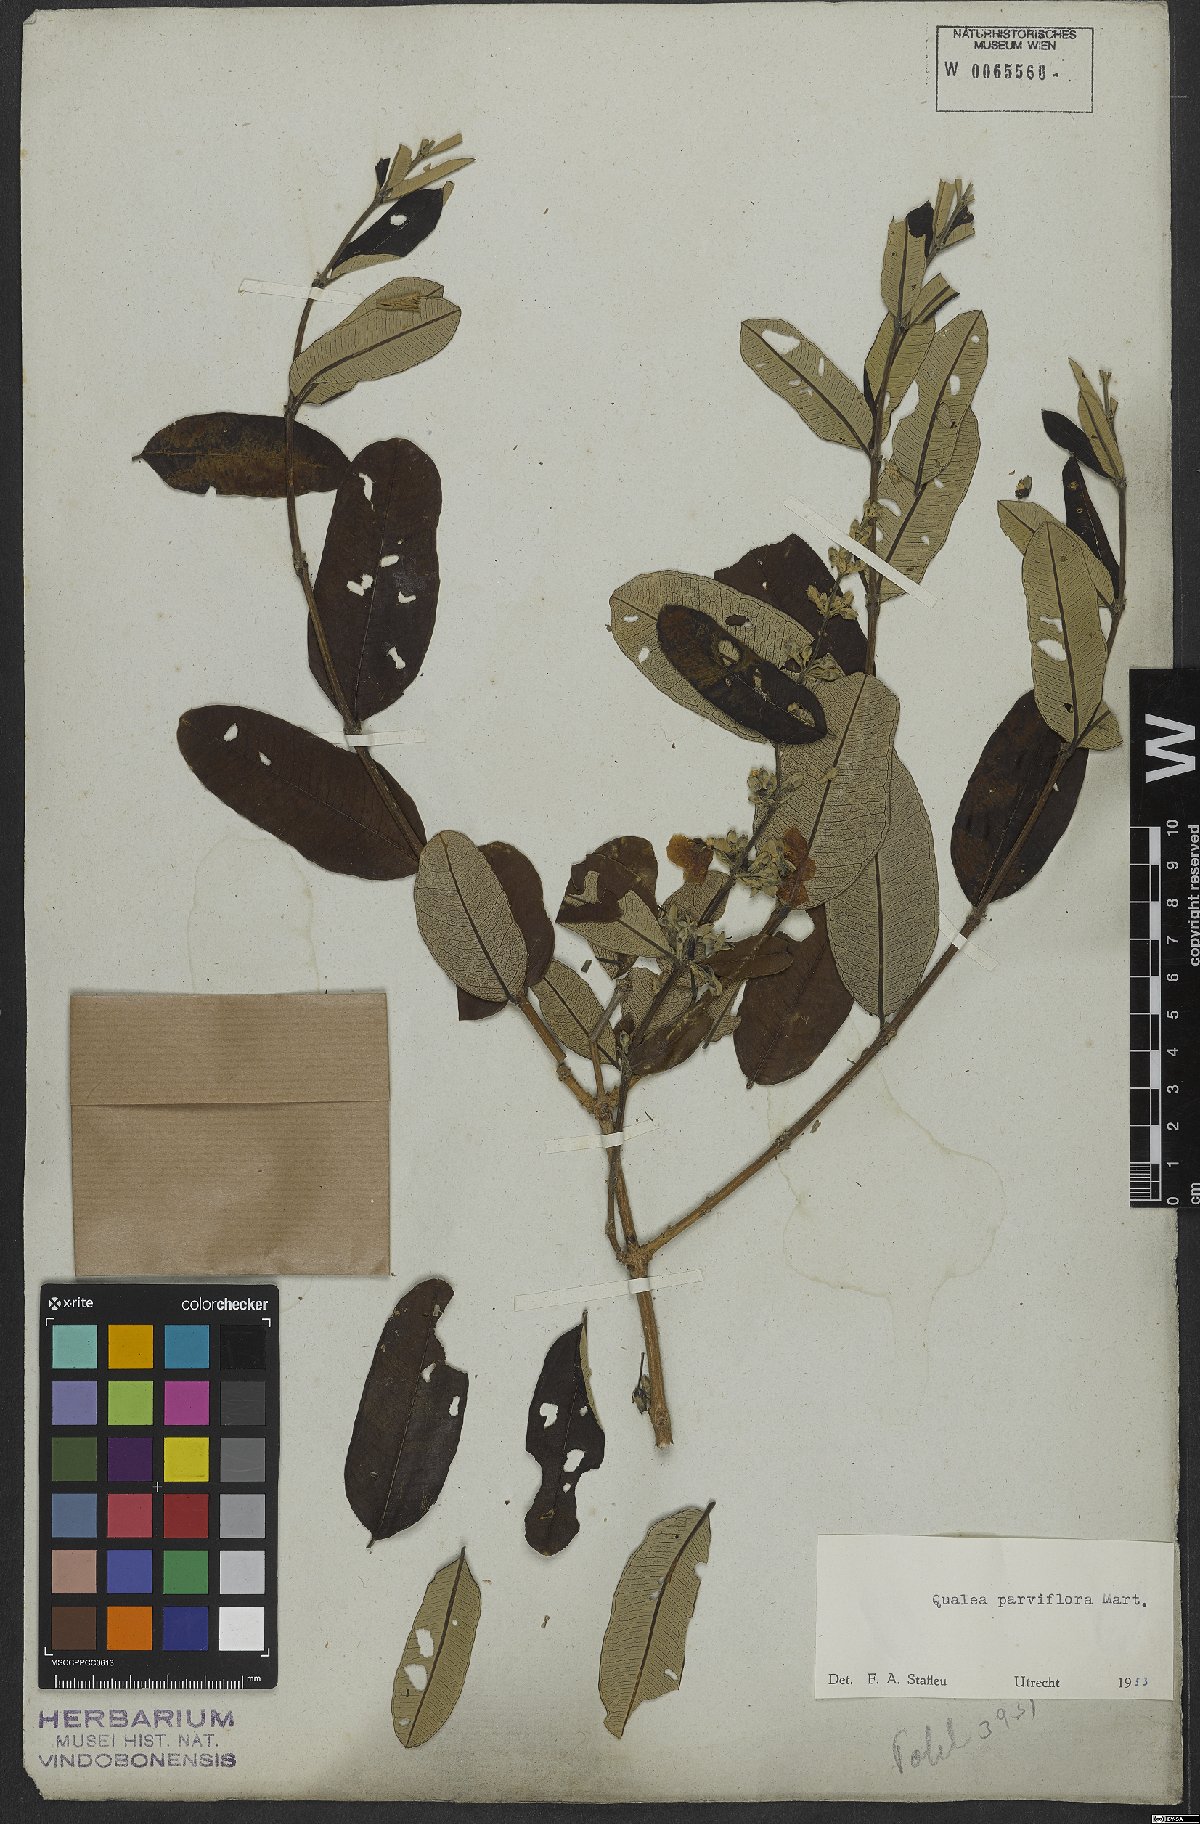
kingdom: Plantae
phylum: Tracheophyta
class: Magnoliopsida
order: Myrtales
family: Vochysiaceae
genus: Qualea
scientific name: Qualea parviflora
